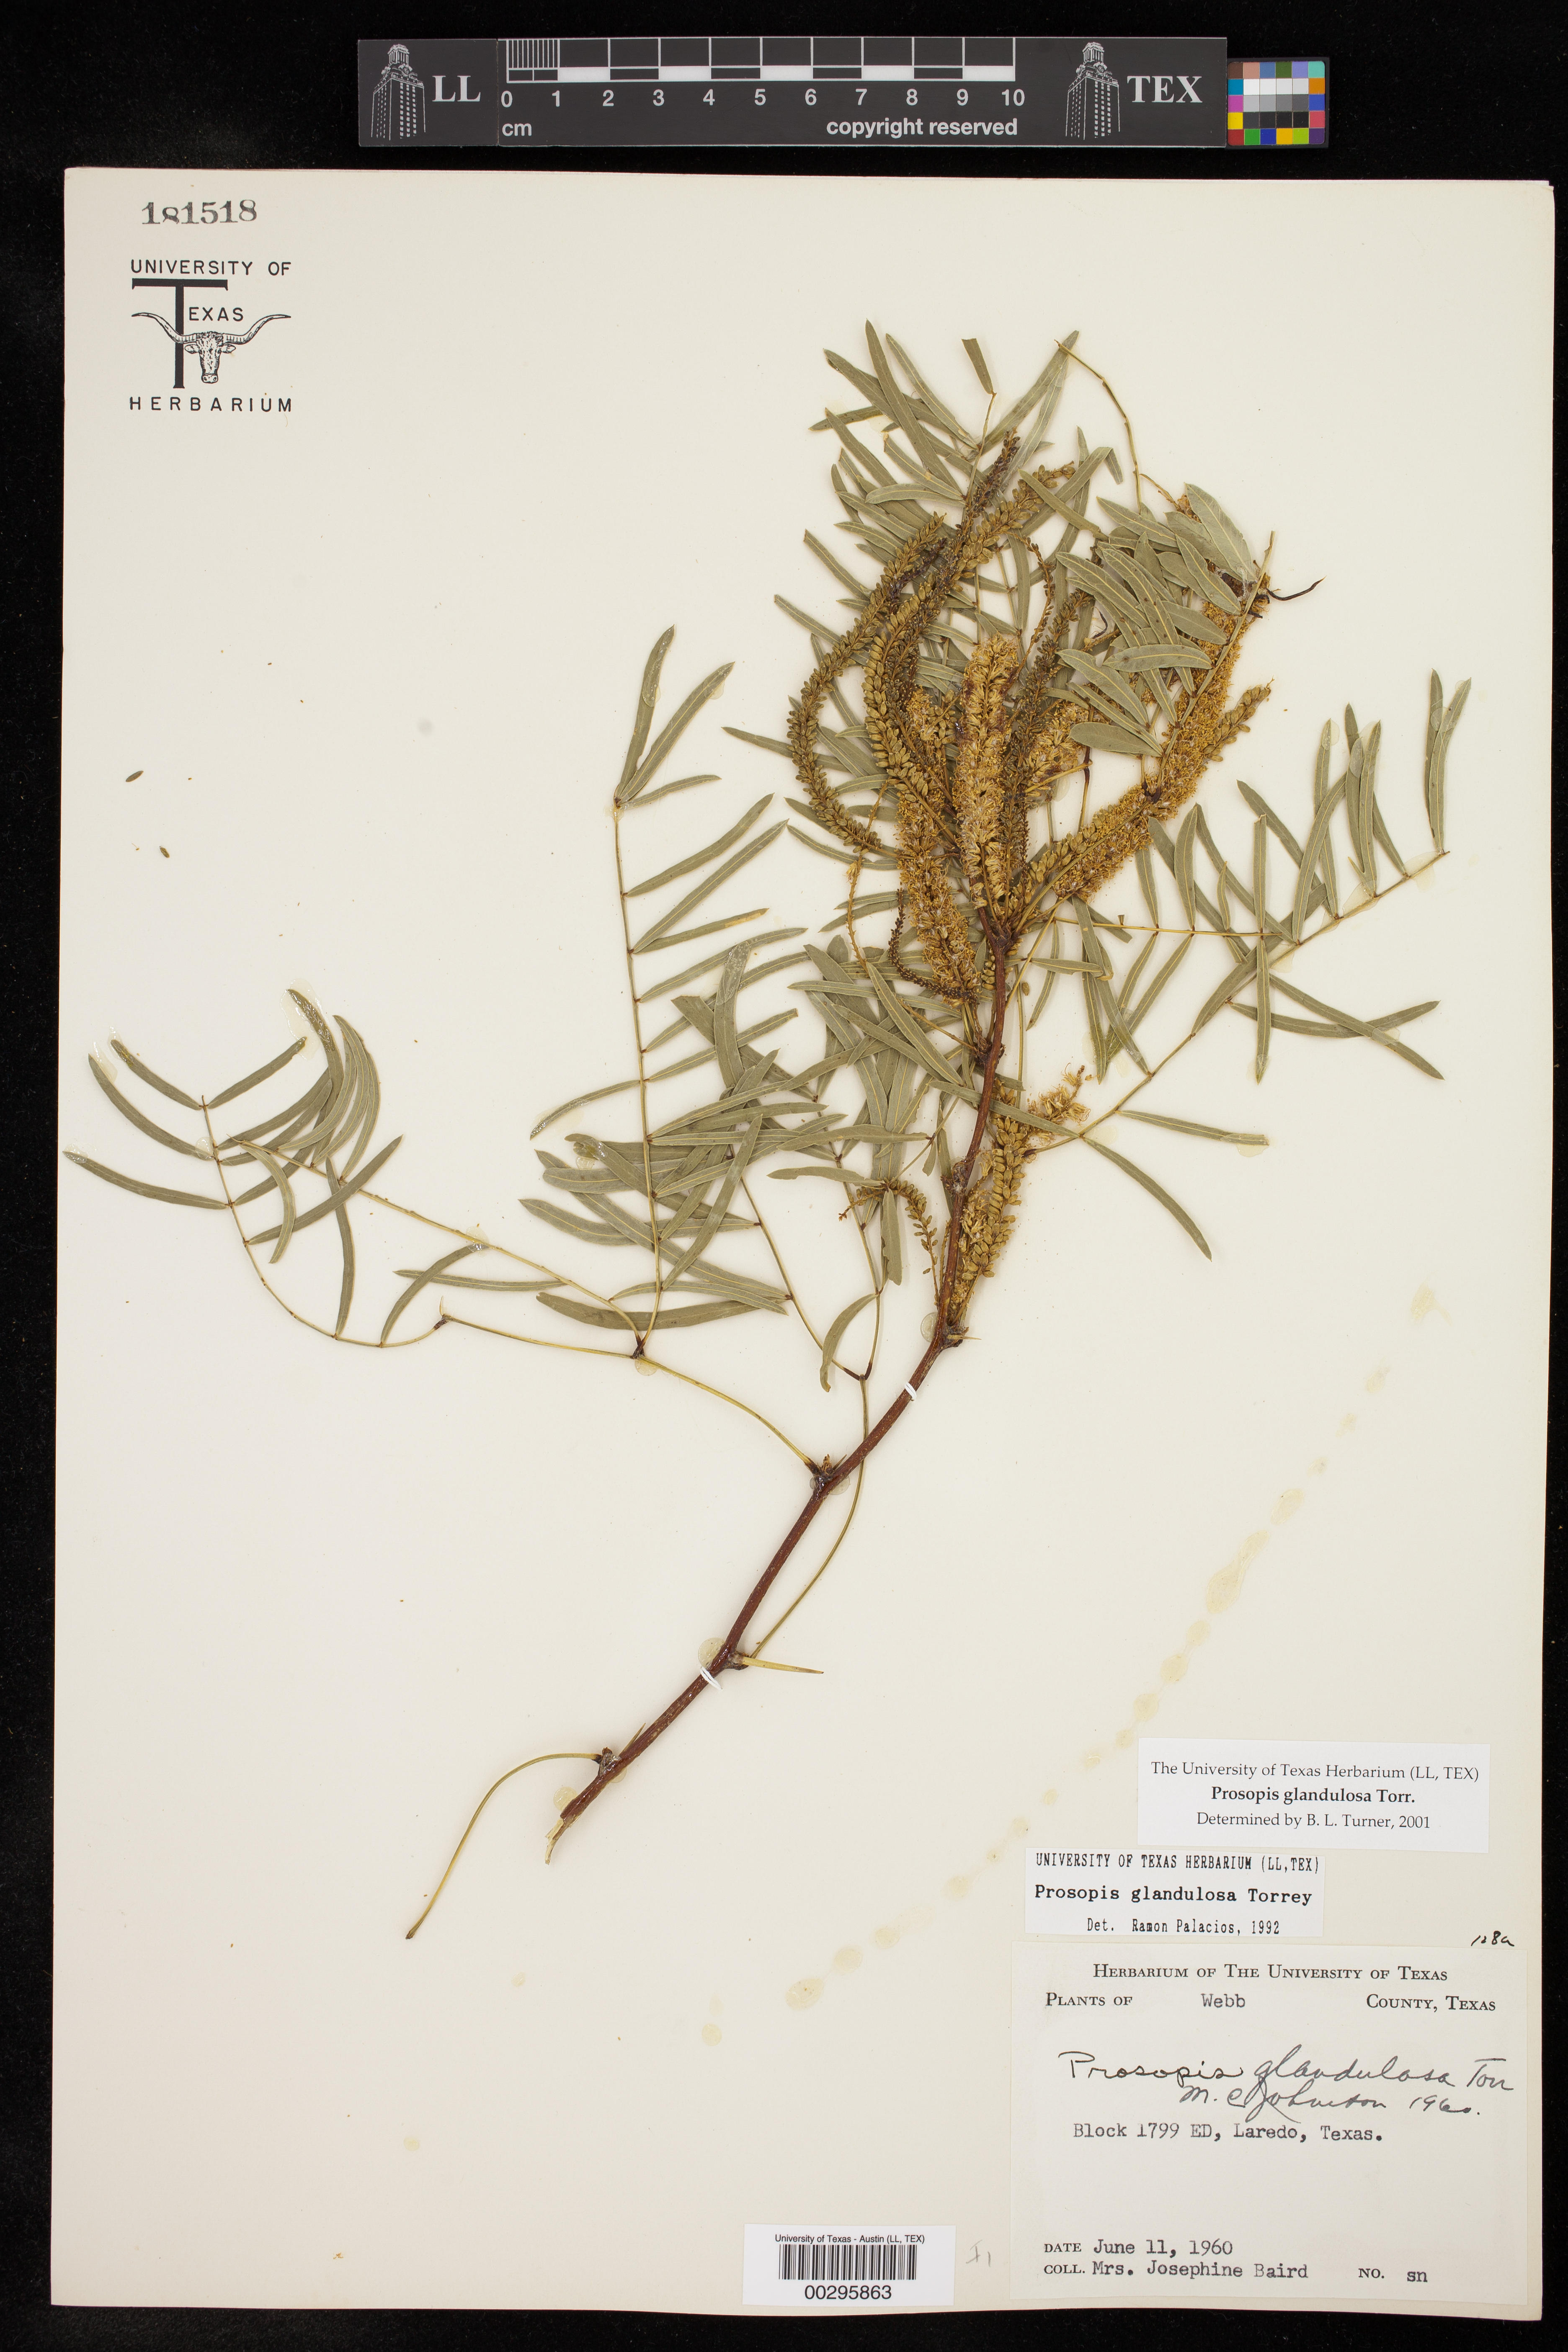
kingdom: Plantae
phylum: Tracheophyta
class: Magnoliopsida
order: Fabales
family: Fabaceae
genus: Prosopis
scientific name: Prosopis glandulosa
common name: Honey mesquite
